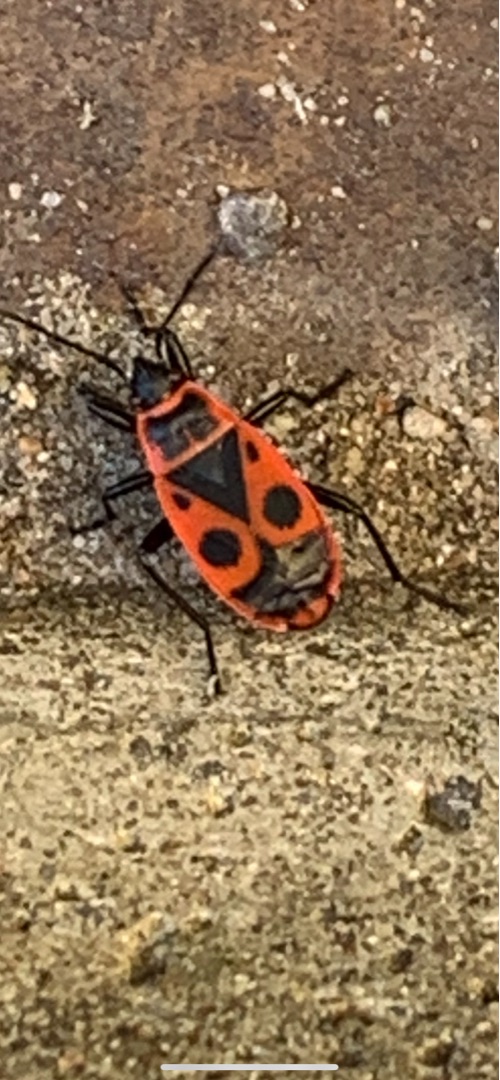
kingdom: Animalia
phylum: Arthropoda
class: Insecta
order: Hemiptera
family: Pyrrhocoridae
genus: Pyrrhocoris
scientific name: Pyrrhocoris apterus
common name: Ildtæge
